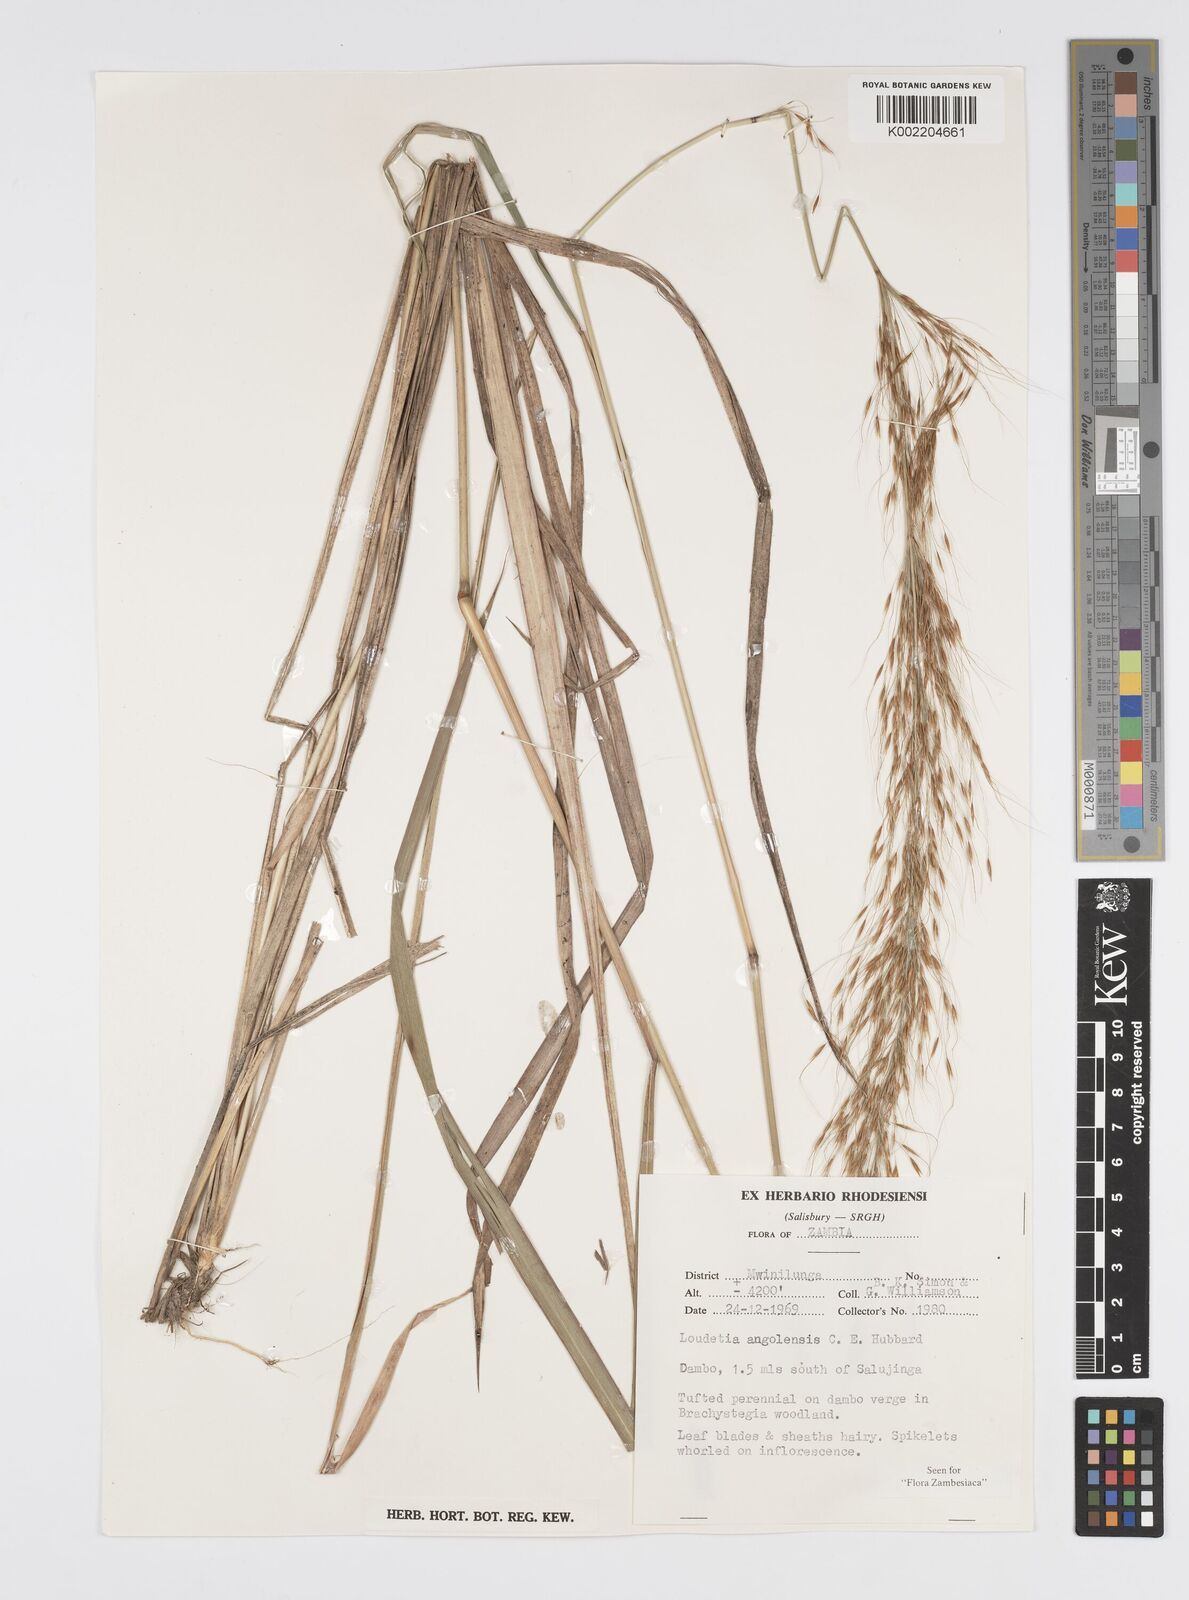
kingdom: Plantae
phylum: Tracheophyta
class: Liliopsida
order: Poales
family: Poaceae
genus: Loudetia
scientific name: Loudetia angolensis
